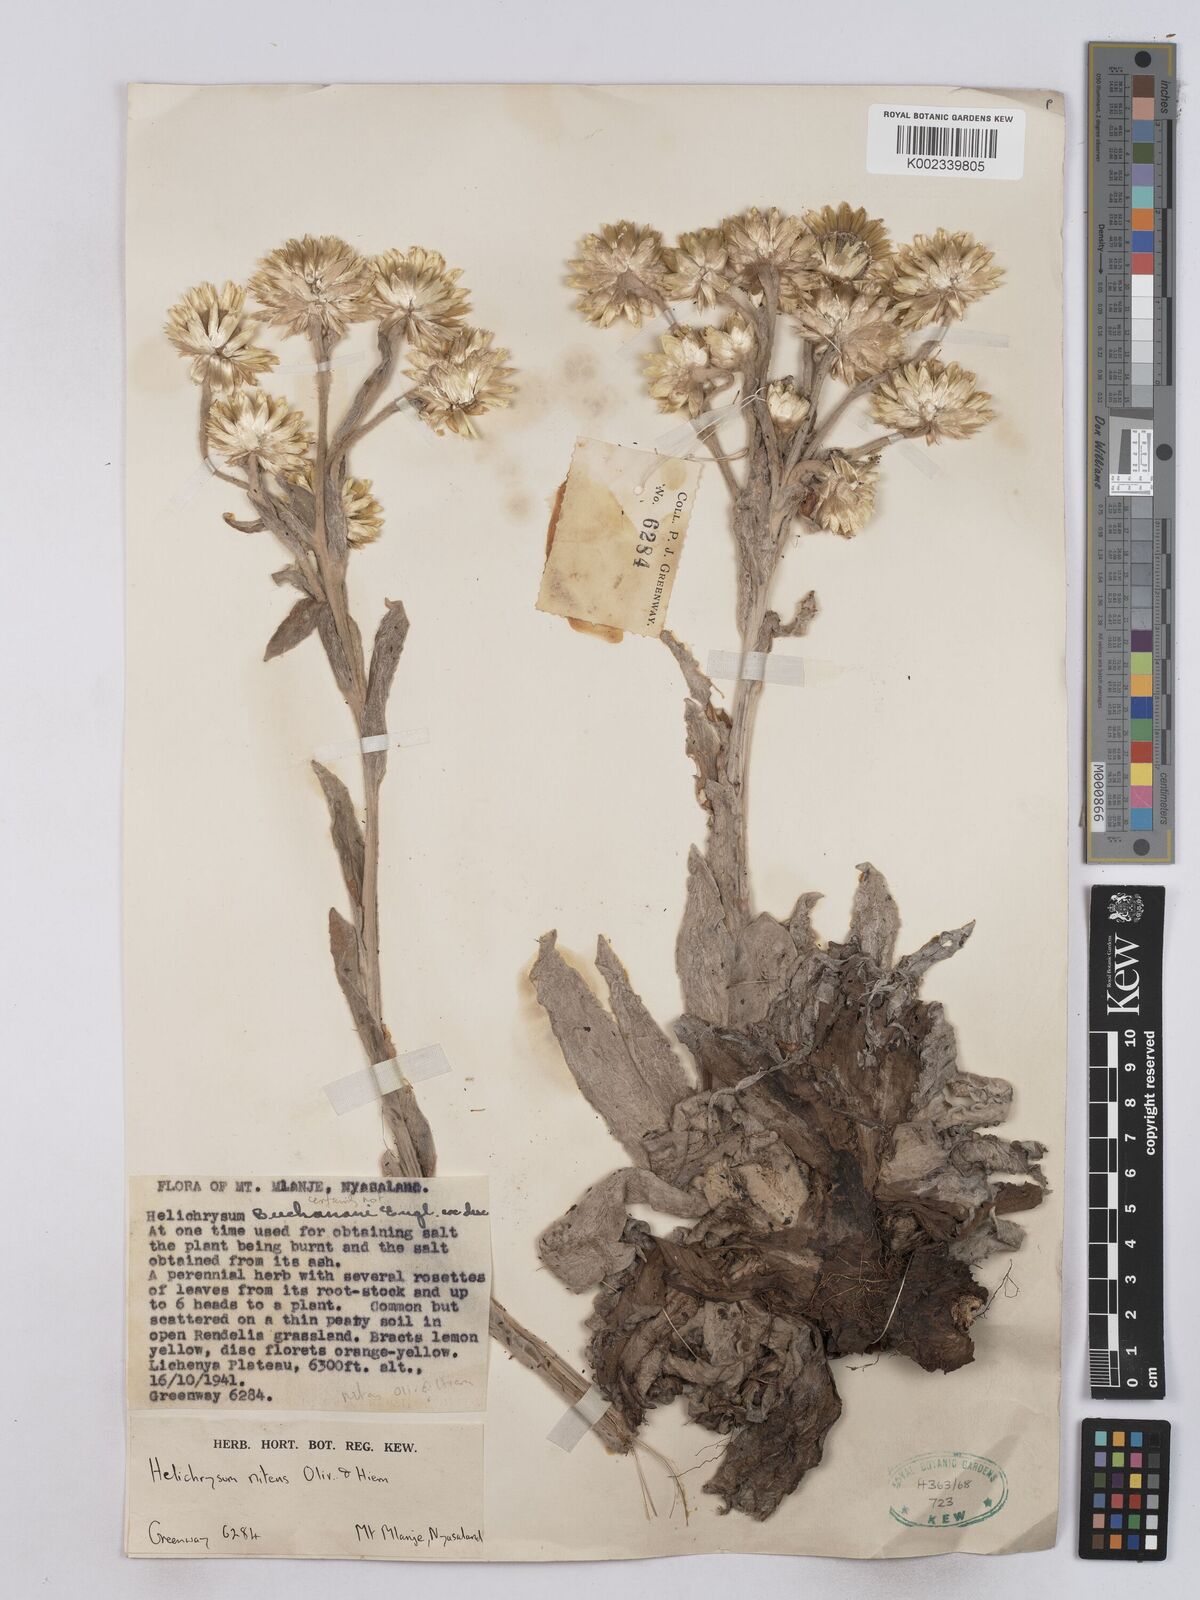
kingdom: Plantae
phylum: Tracheophyta
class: Magnoliopsida
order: Asterales
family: Asteraceae
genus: Helichrysum
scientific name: Helichrysum nitens
